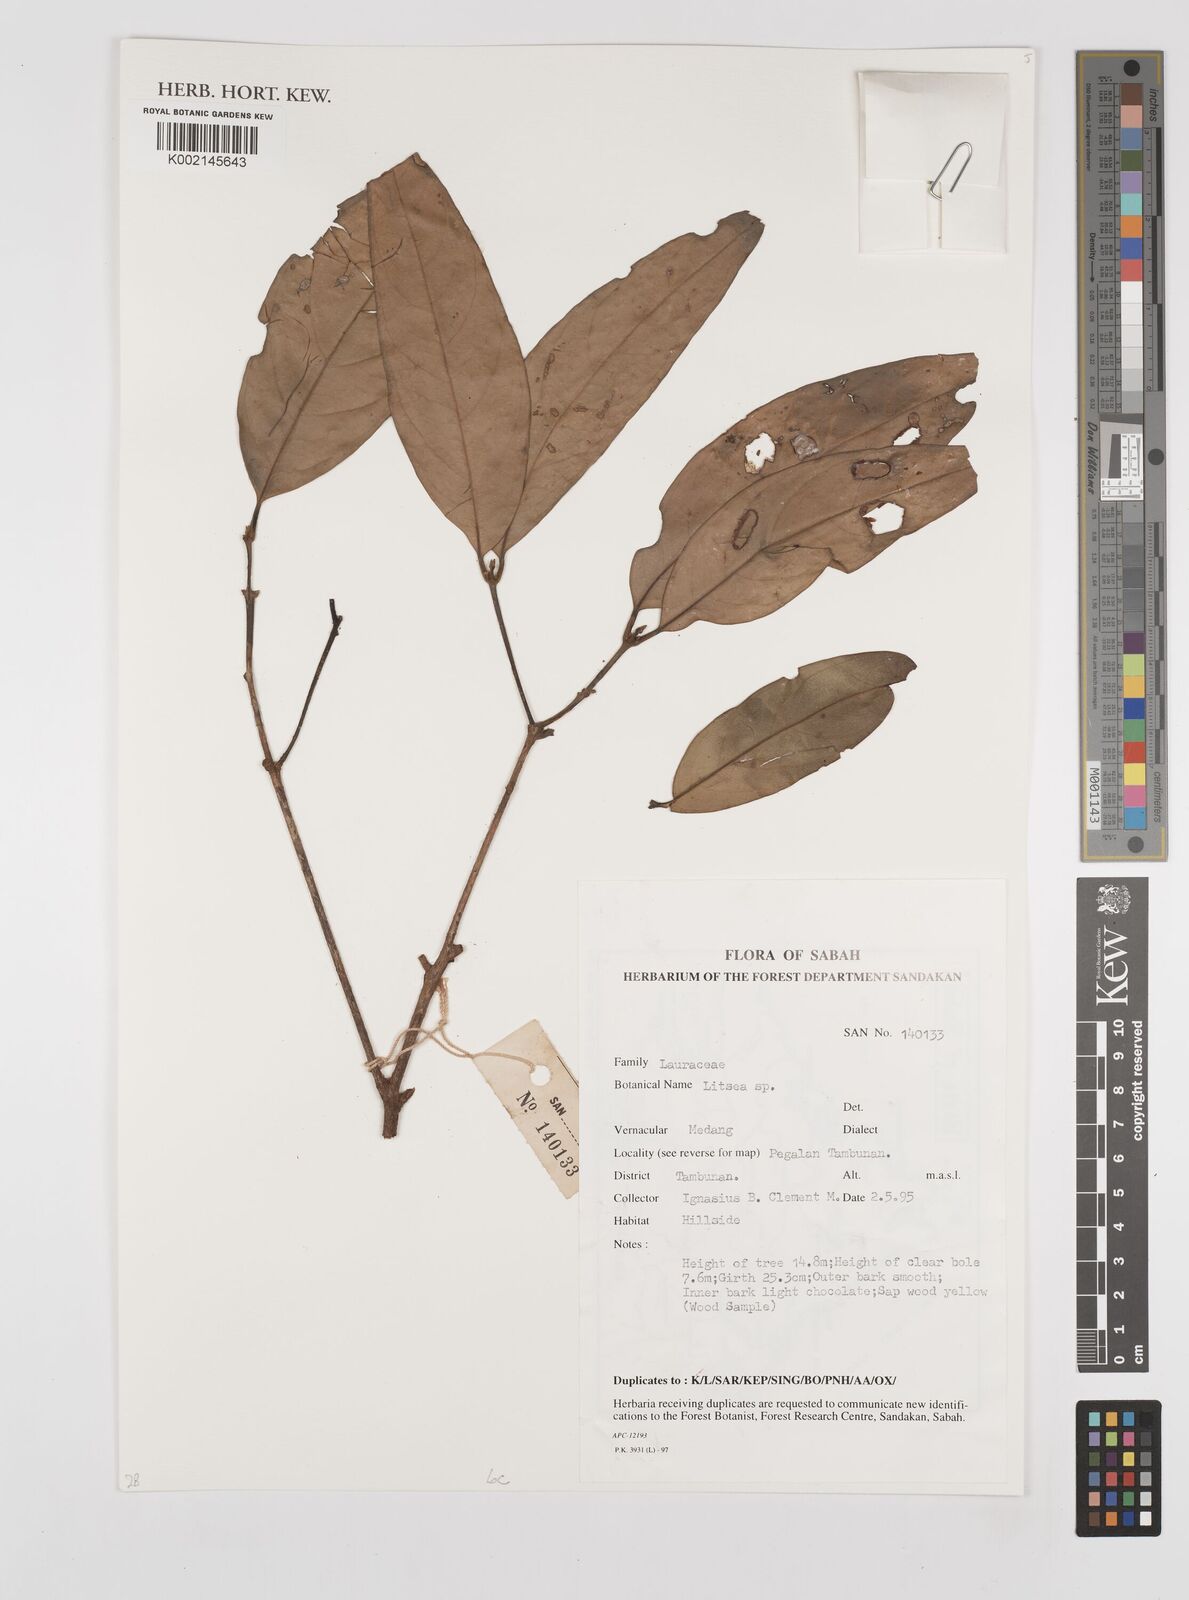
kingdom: Plantae
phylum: Tracheophyta
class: Magnoliopsida
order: Laurales
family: Lauraceae
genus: Litsea
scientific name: Litsea
